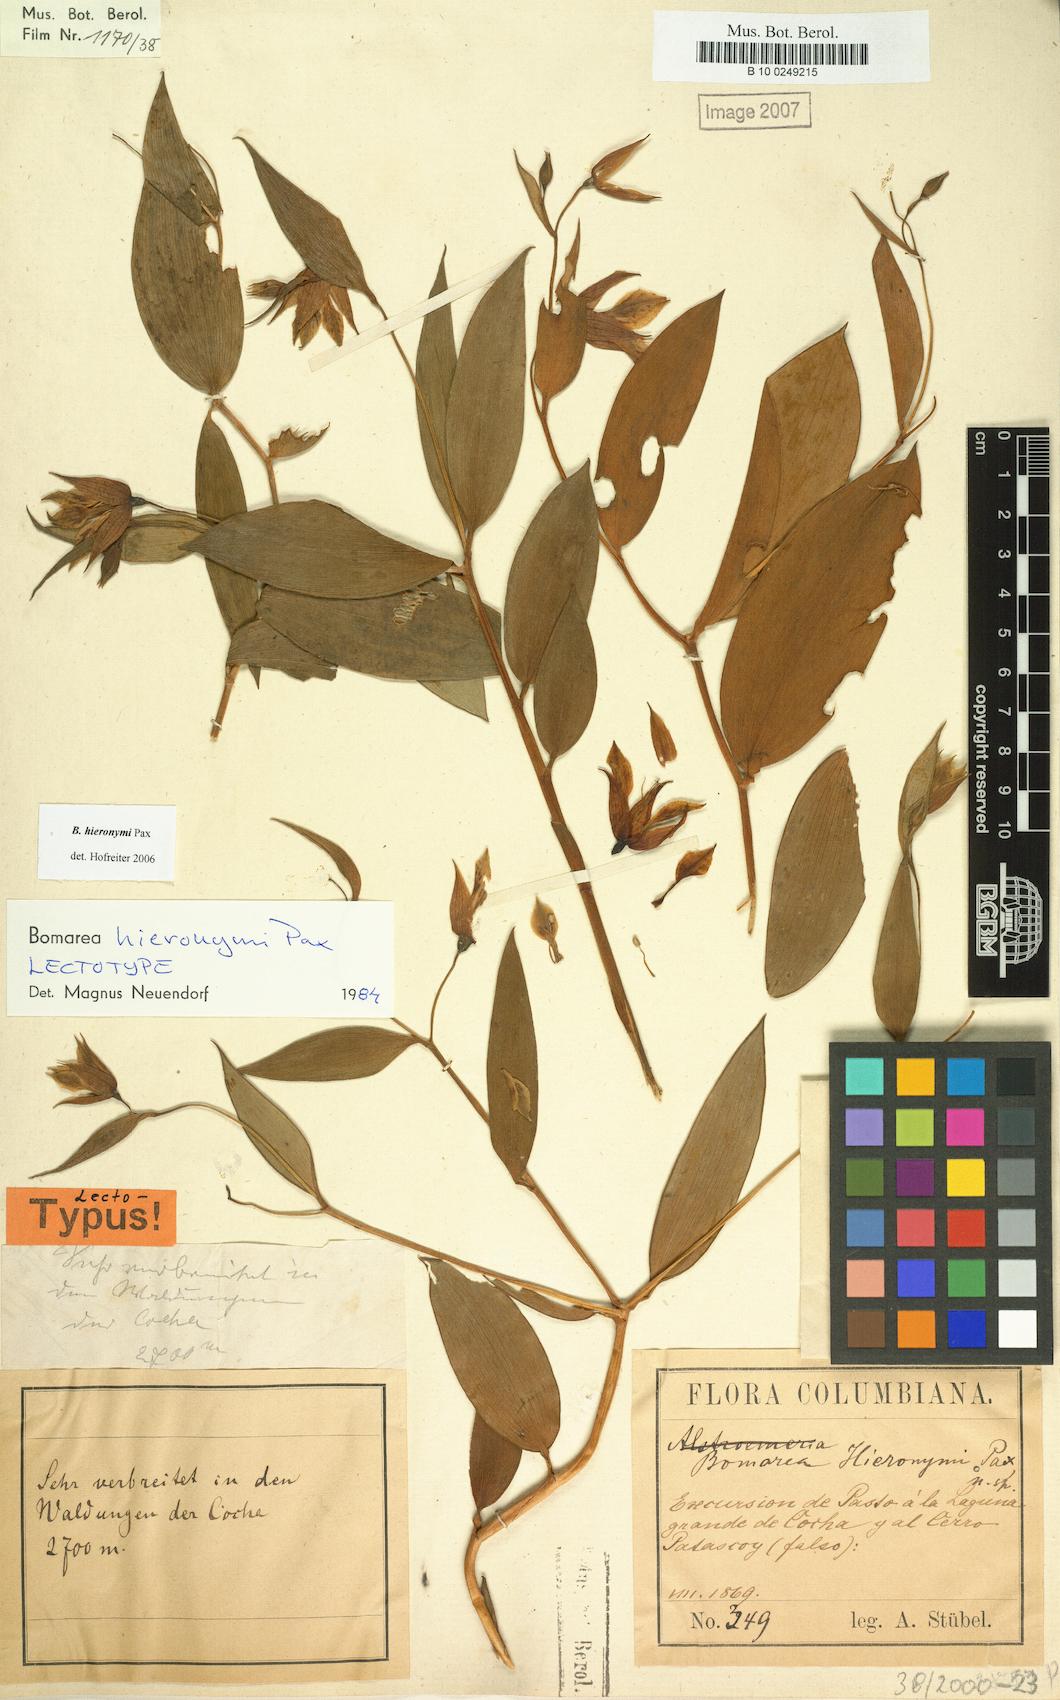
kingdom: Plantae
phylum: Tracheophyta
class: Liliopsida
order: Liliales
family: Alstroemeriaceae
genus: Bomarea
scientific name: Bomarea hieronymi
